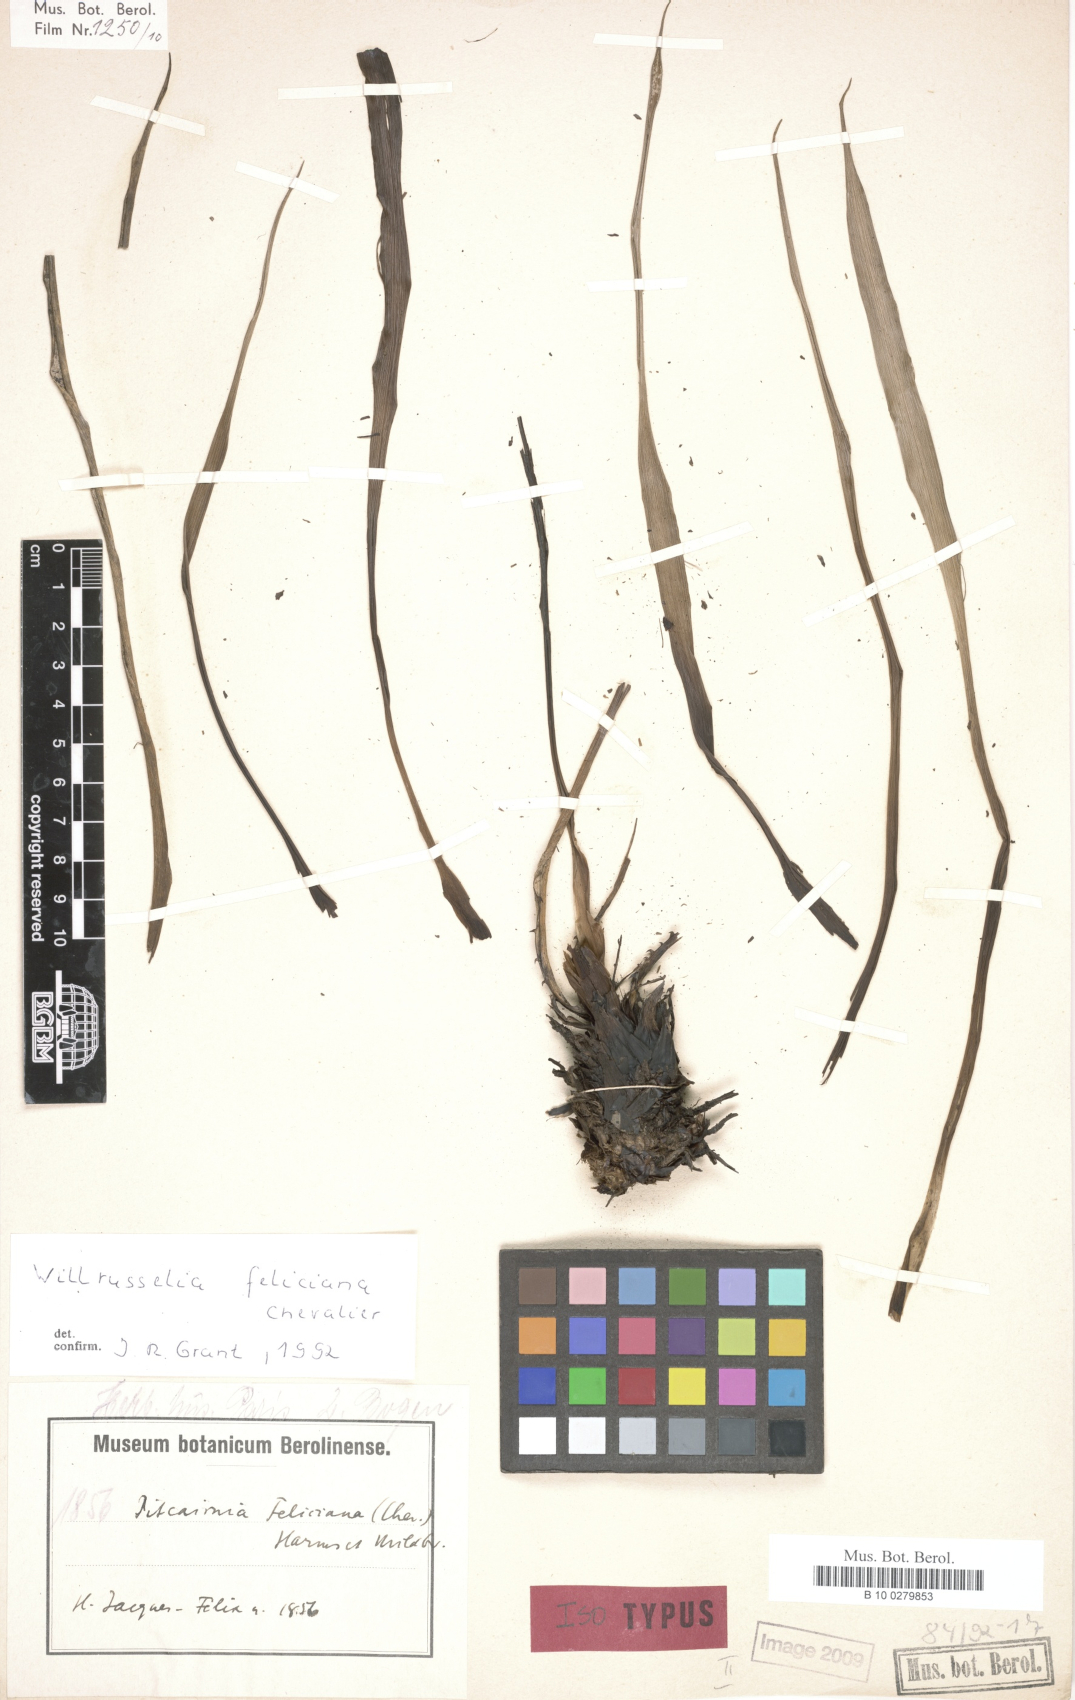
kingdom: Plantae
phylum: Tracheophyta
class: Liliopsida
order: Poales
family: Bromeliaceae
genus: Pitcairnia
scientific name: Pitcairnia feliciana
